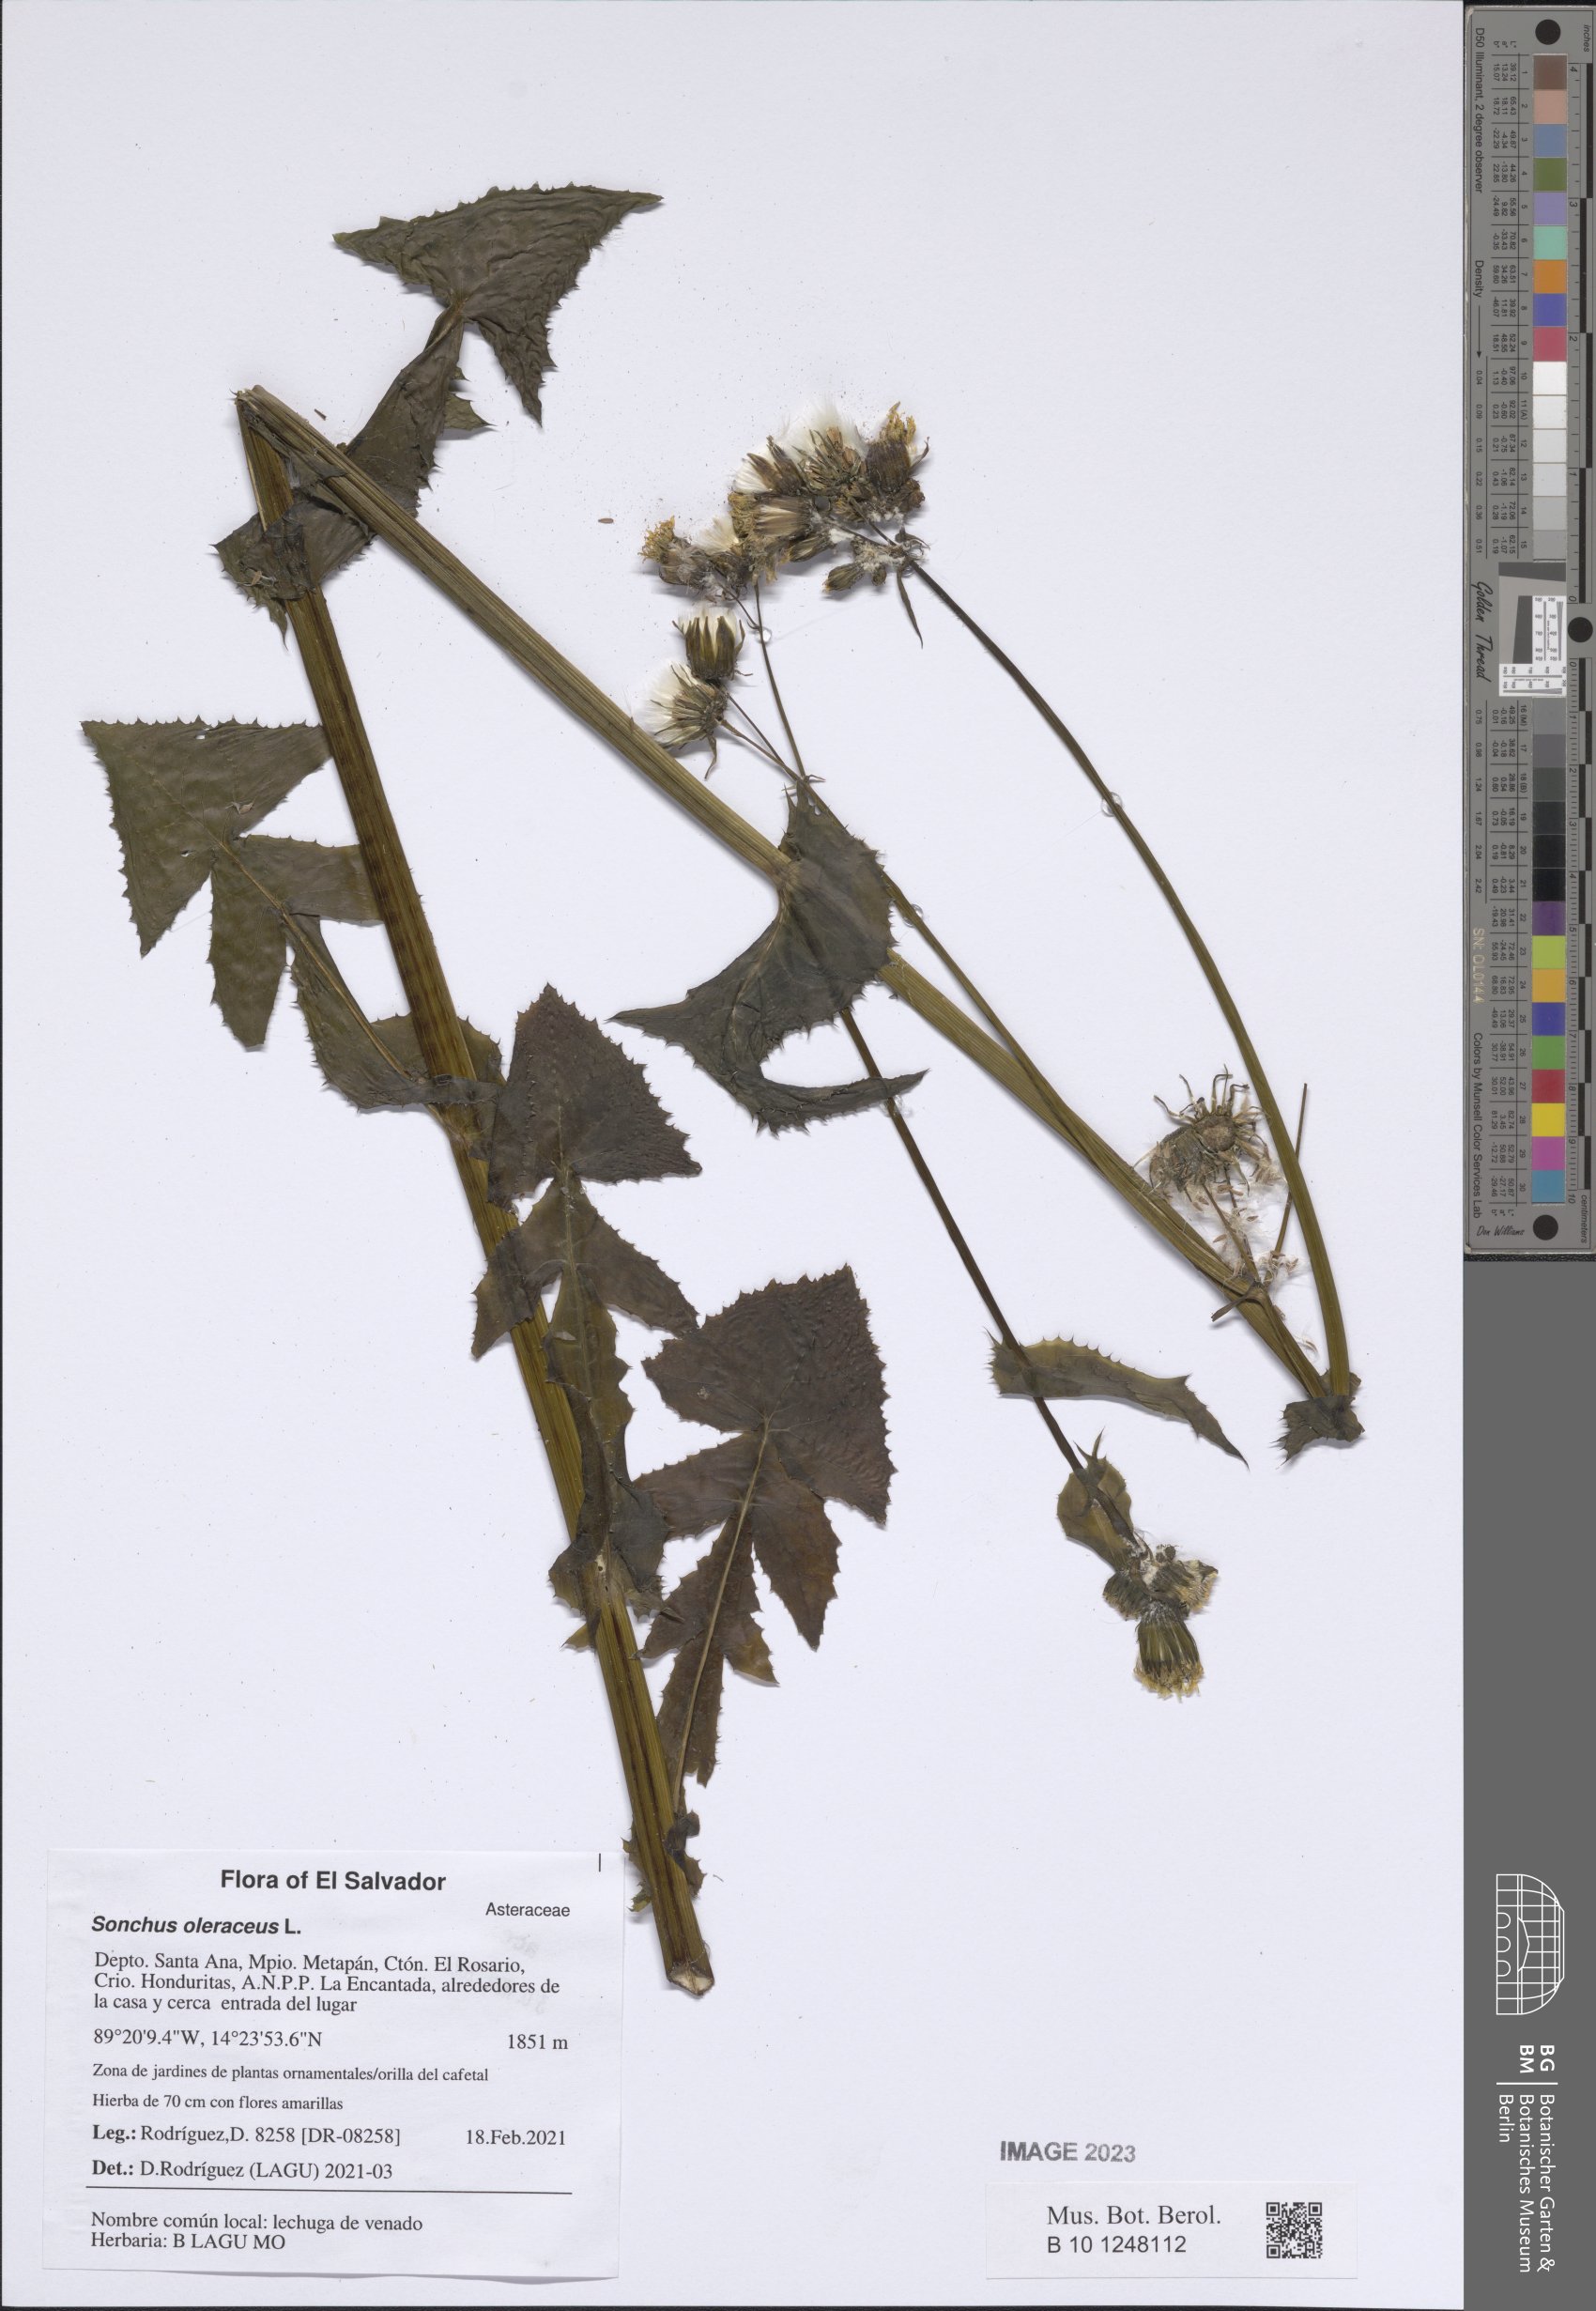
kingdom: Plantae
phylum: Tracheophyta
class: Magnoliopsida
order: Asterales
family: Asteraceae
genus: Sonchus
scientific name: Sonchus oleraceus
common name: Common sowthistle
